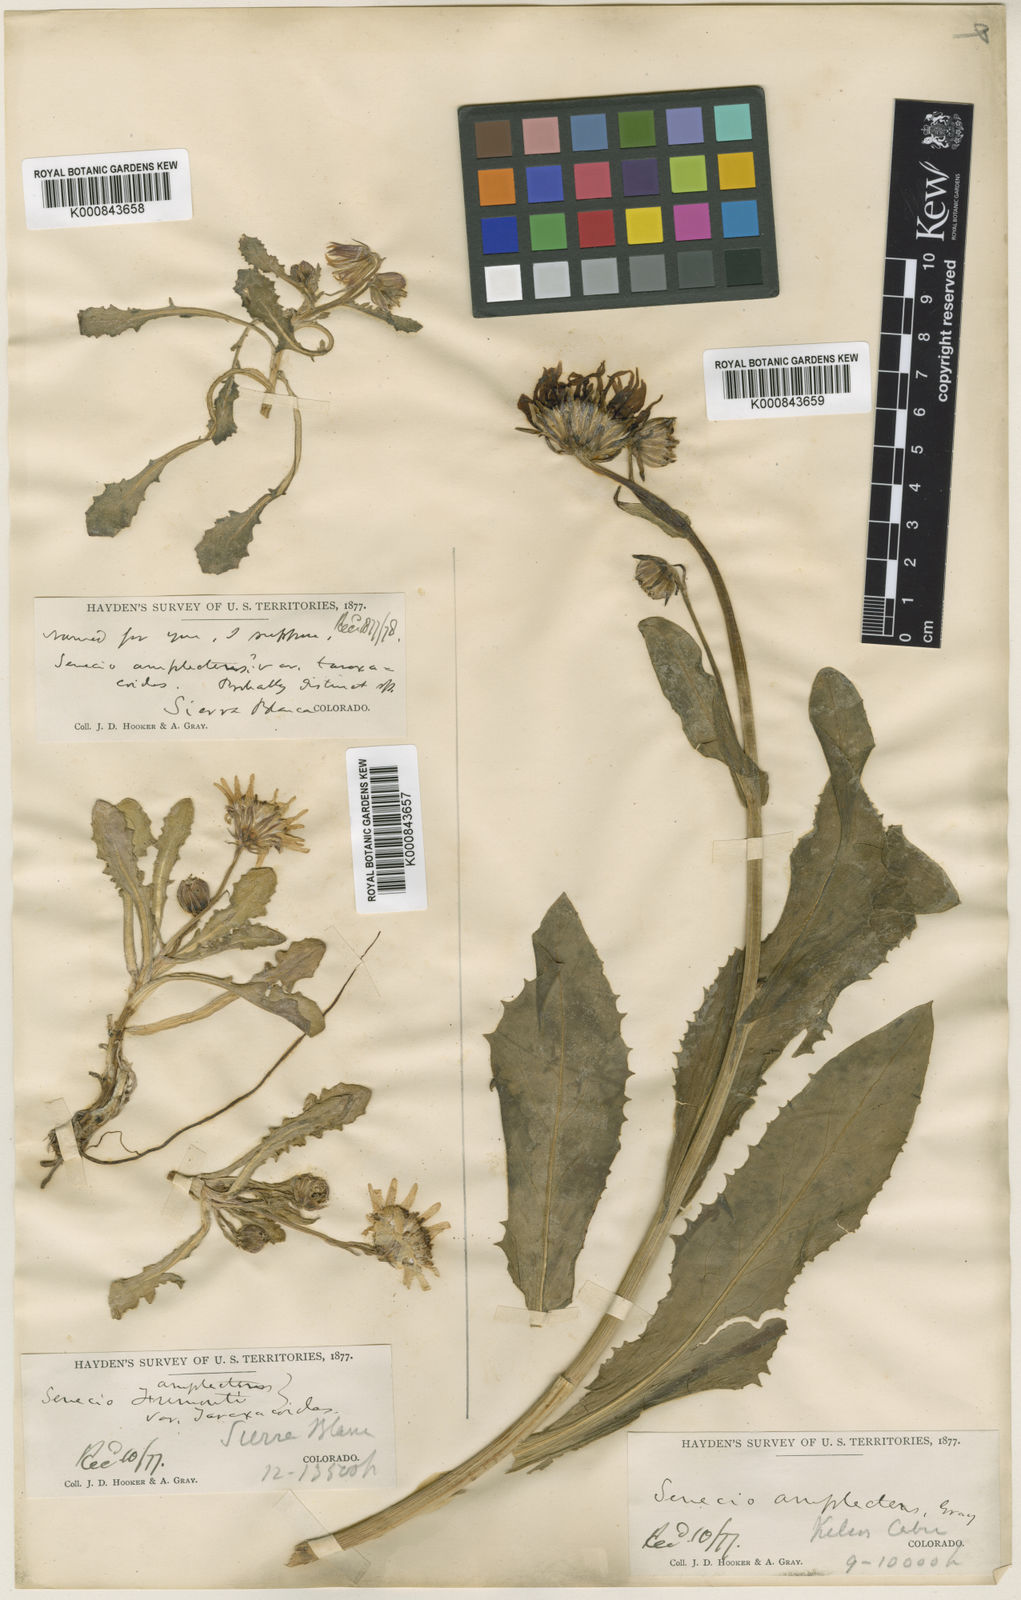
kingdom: Plantae
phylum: Tracheophyta
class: Magnoliopsida
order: Asterales
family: Asteraceae
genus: Senecio
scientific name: Senecio taraxacoides
